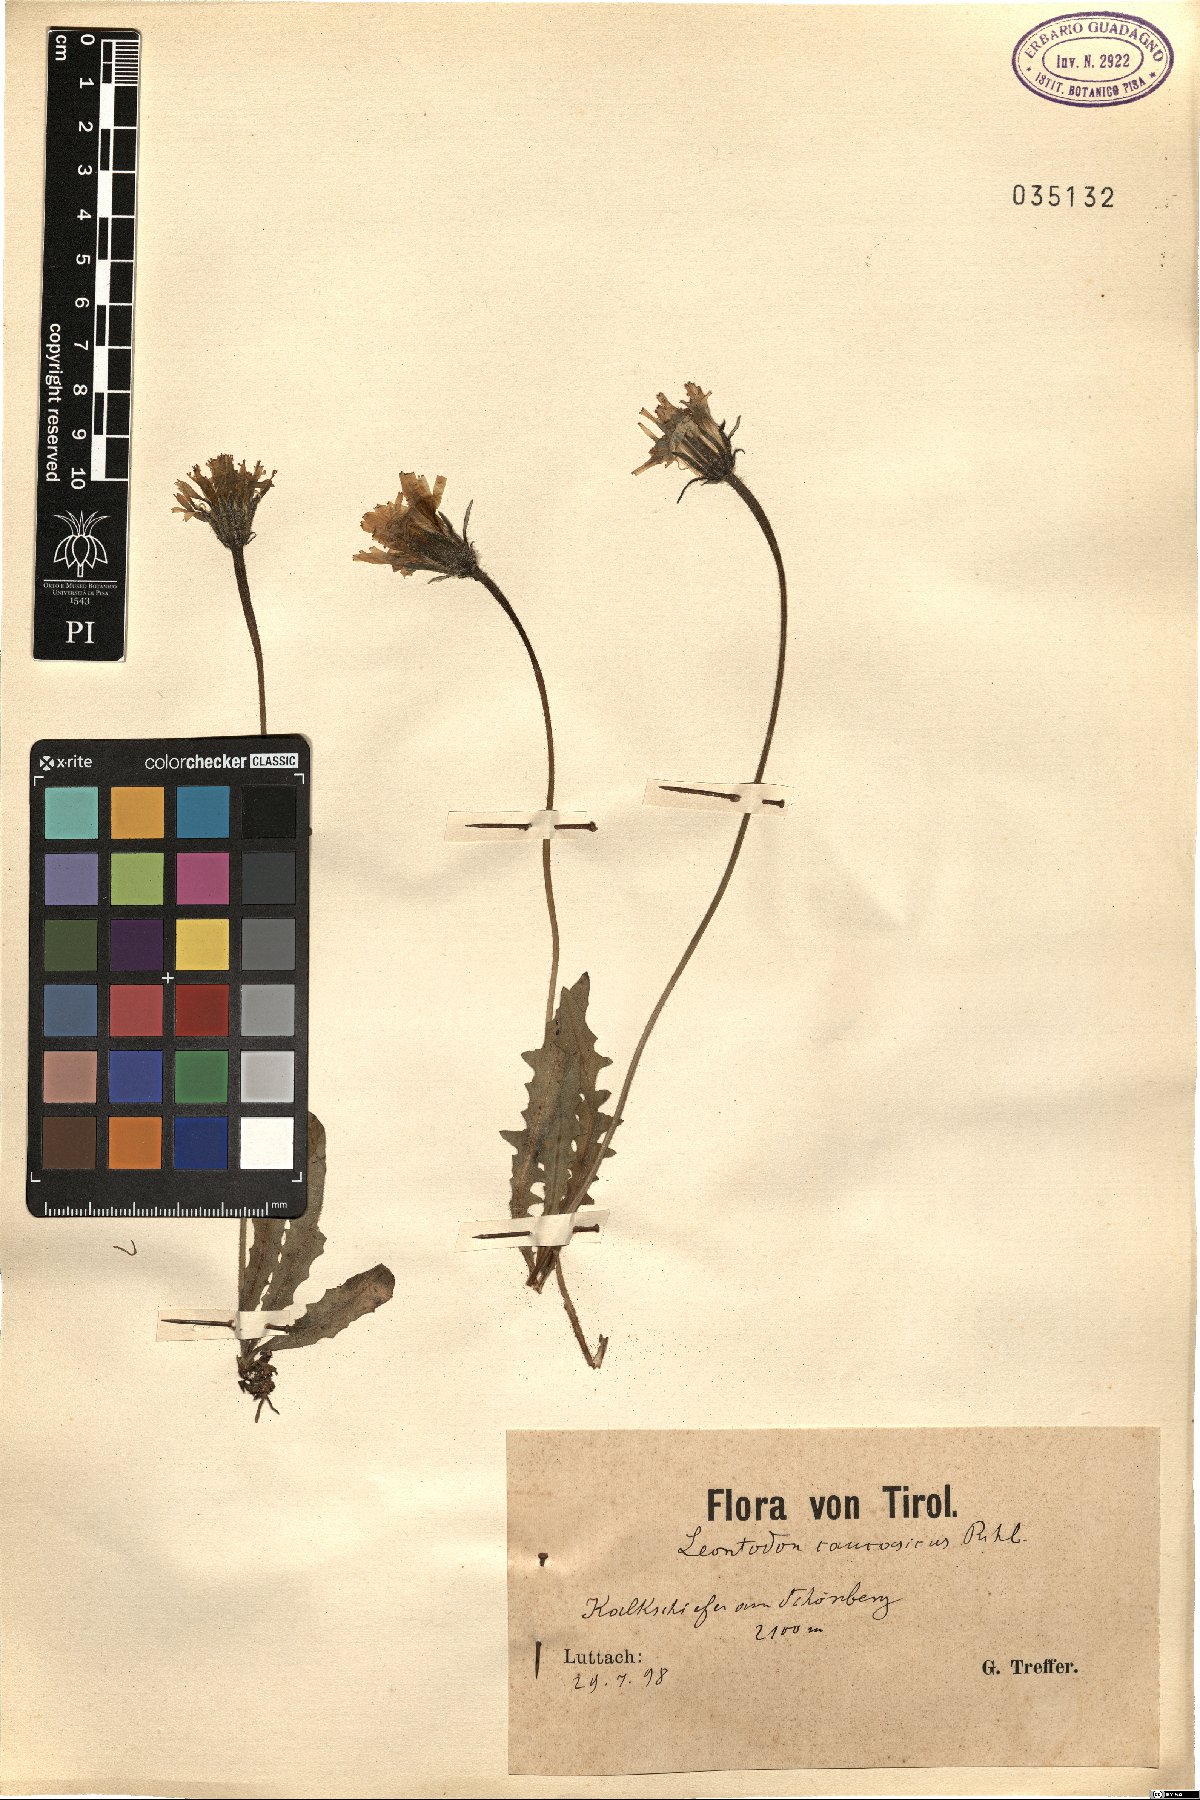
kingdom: Plantae
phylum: Tracheophyta
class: Magnoliopsida
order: Asterales
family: Asteraceae
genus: Leontodon
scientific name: Leontodon caucasicus
